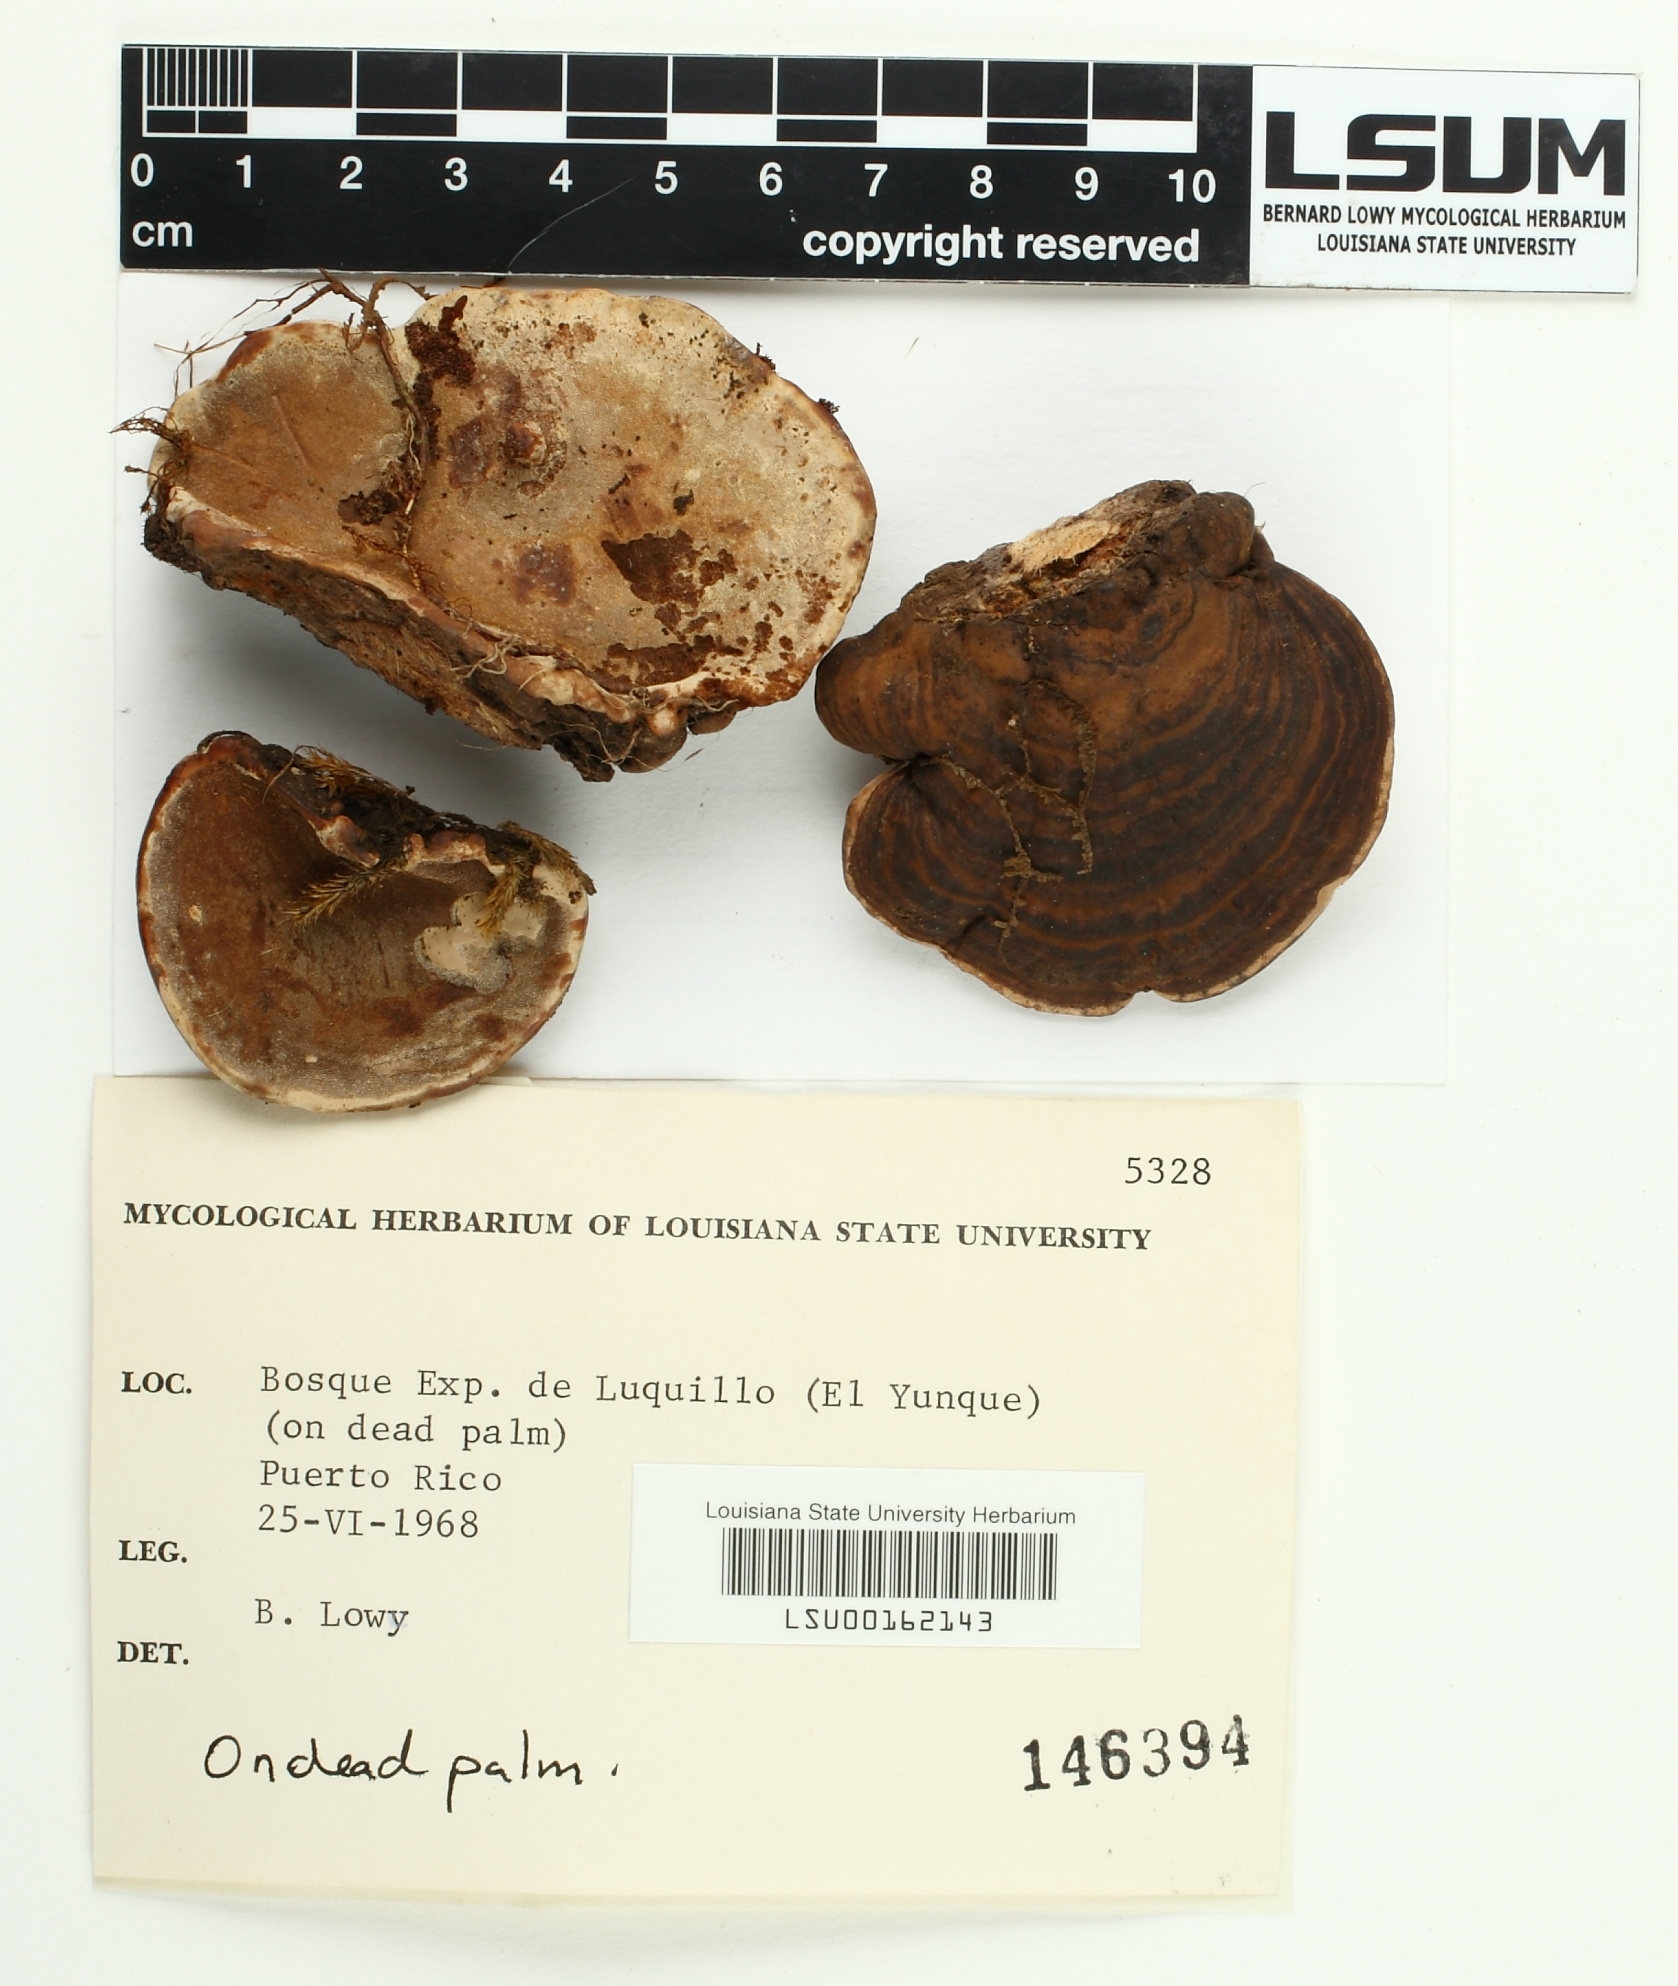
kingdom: Fungi
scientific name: Fungi
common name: Fungi
